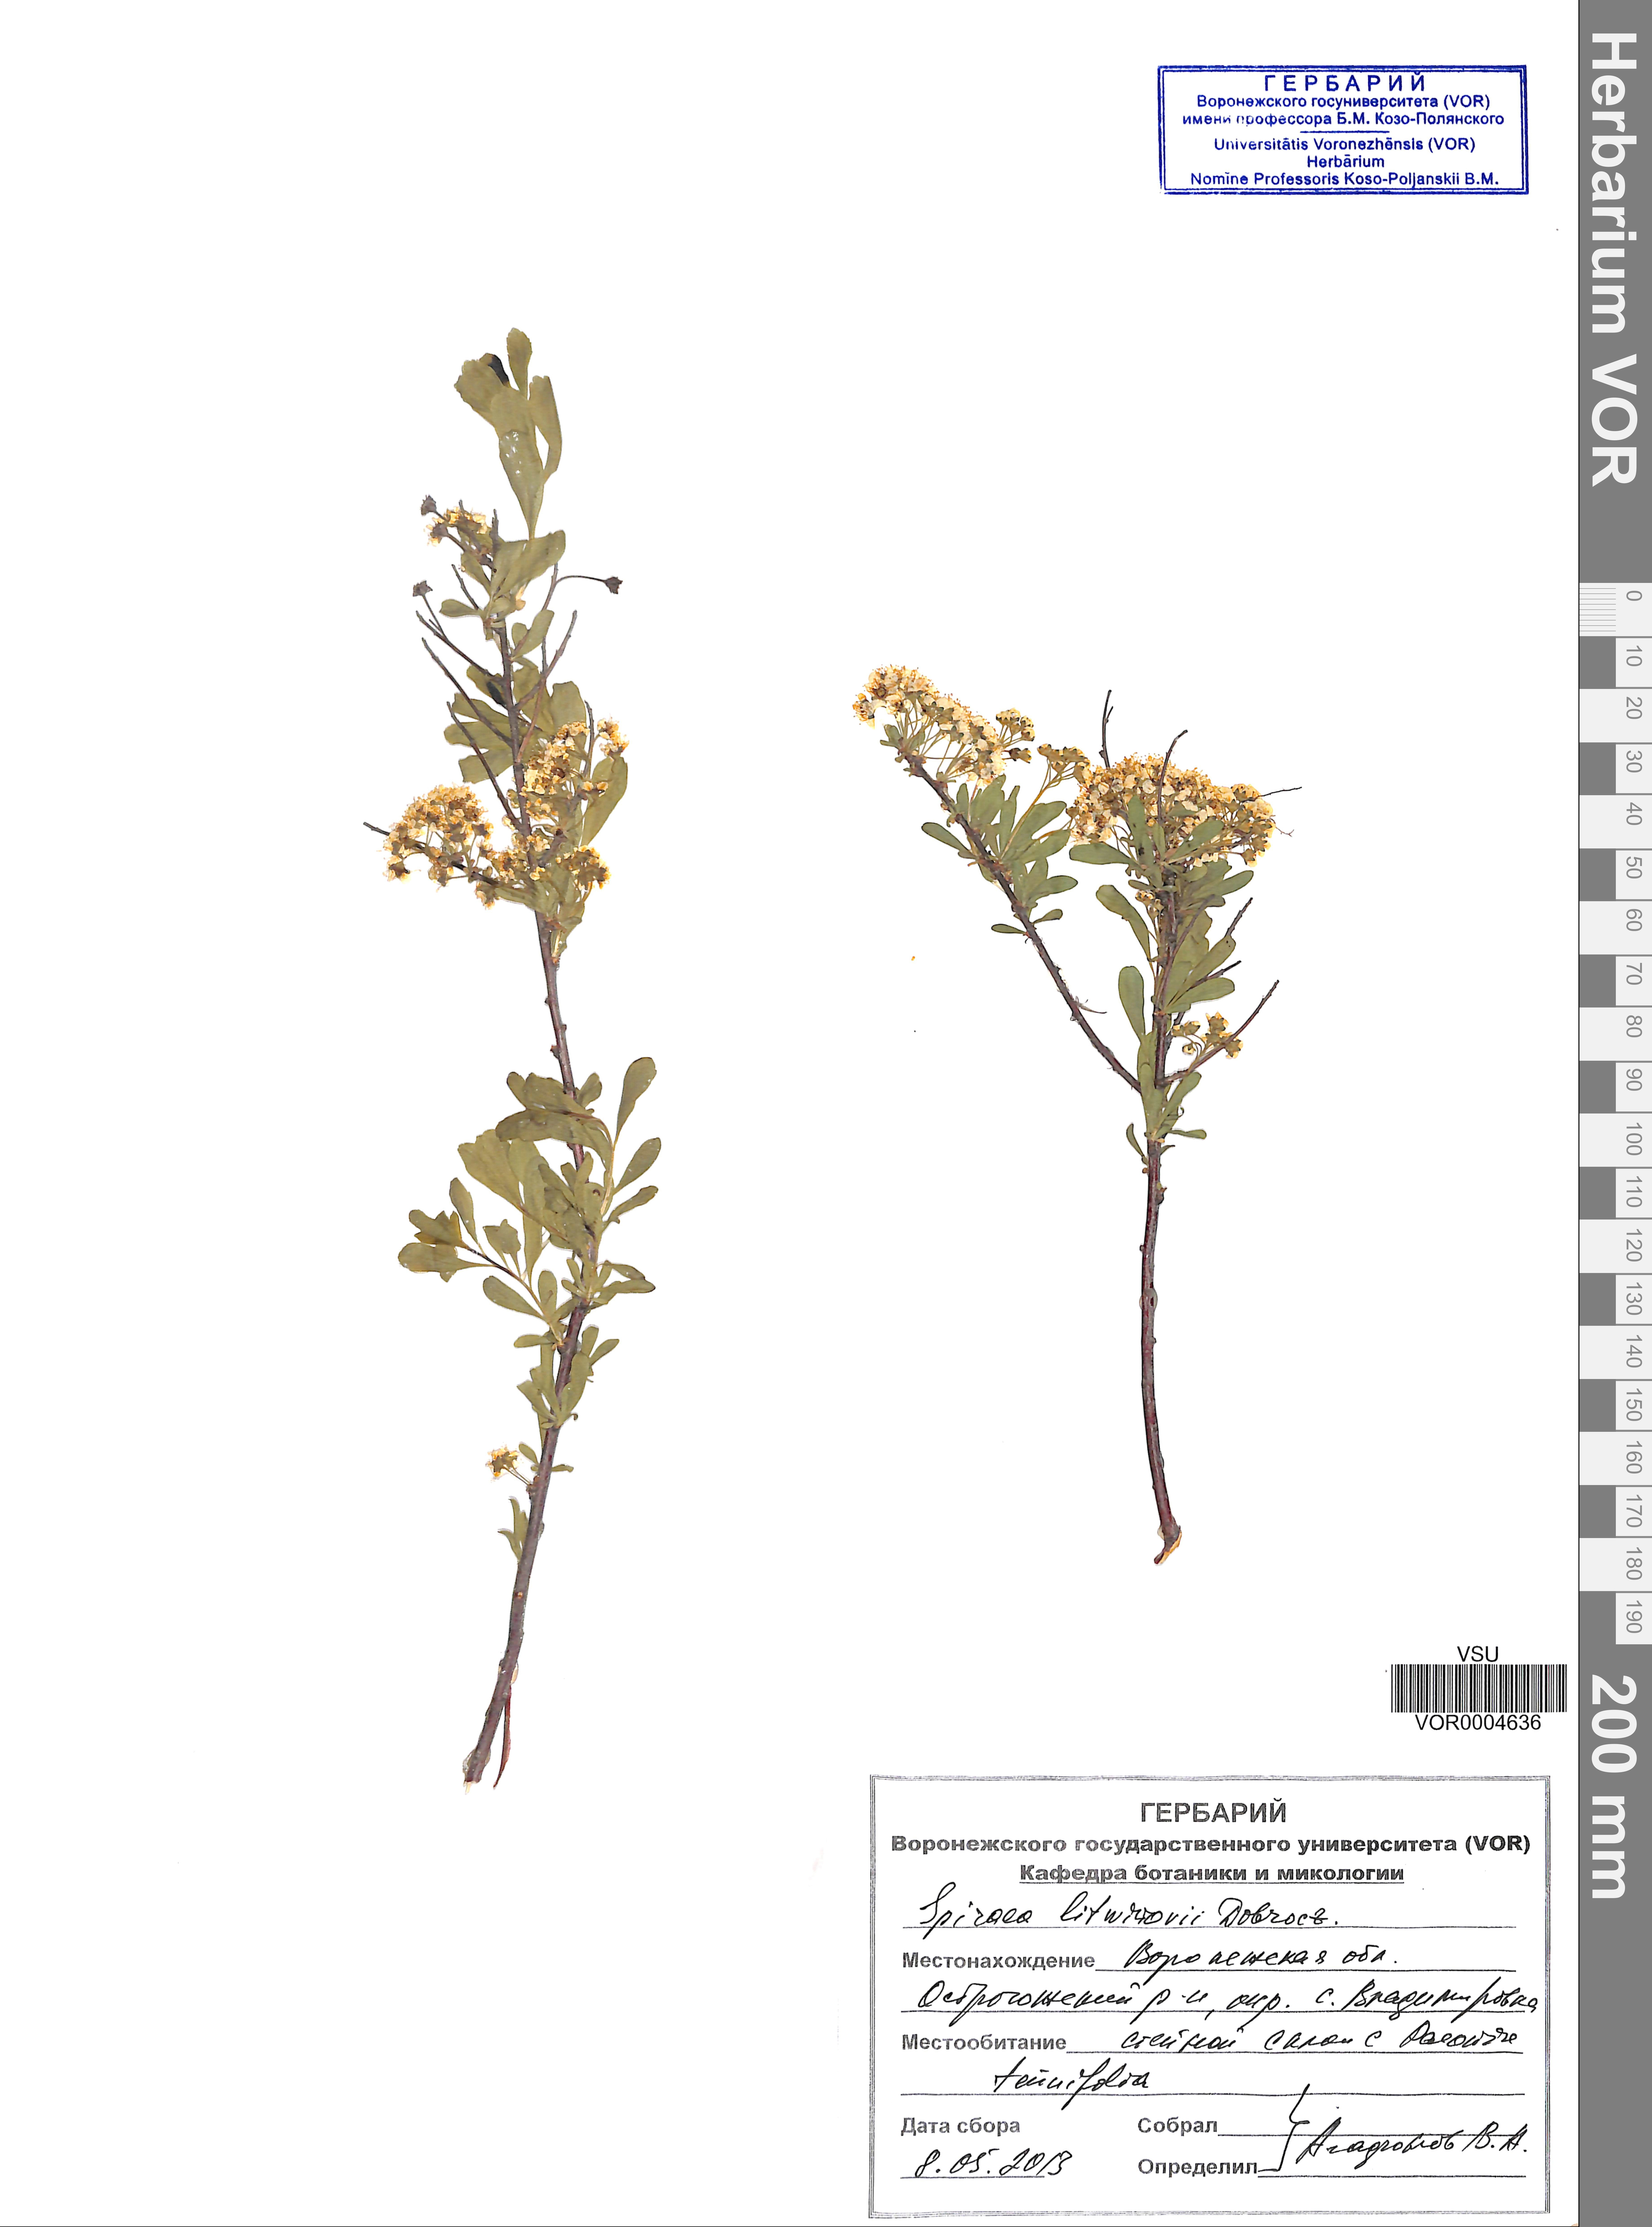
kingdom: Plantae
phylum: Tracheophyta
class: Magnoliopsida
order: Rosales
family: Rosaceae
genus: Spiraea
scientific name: Spiraea crenata
